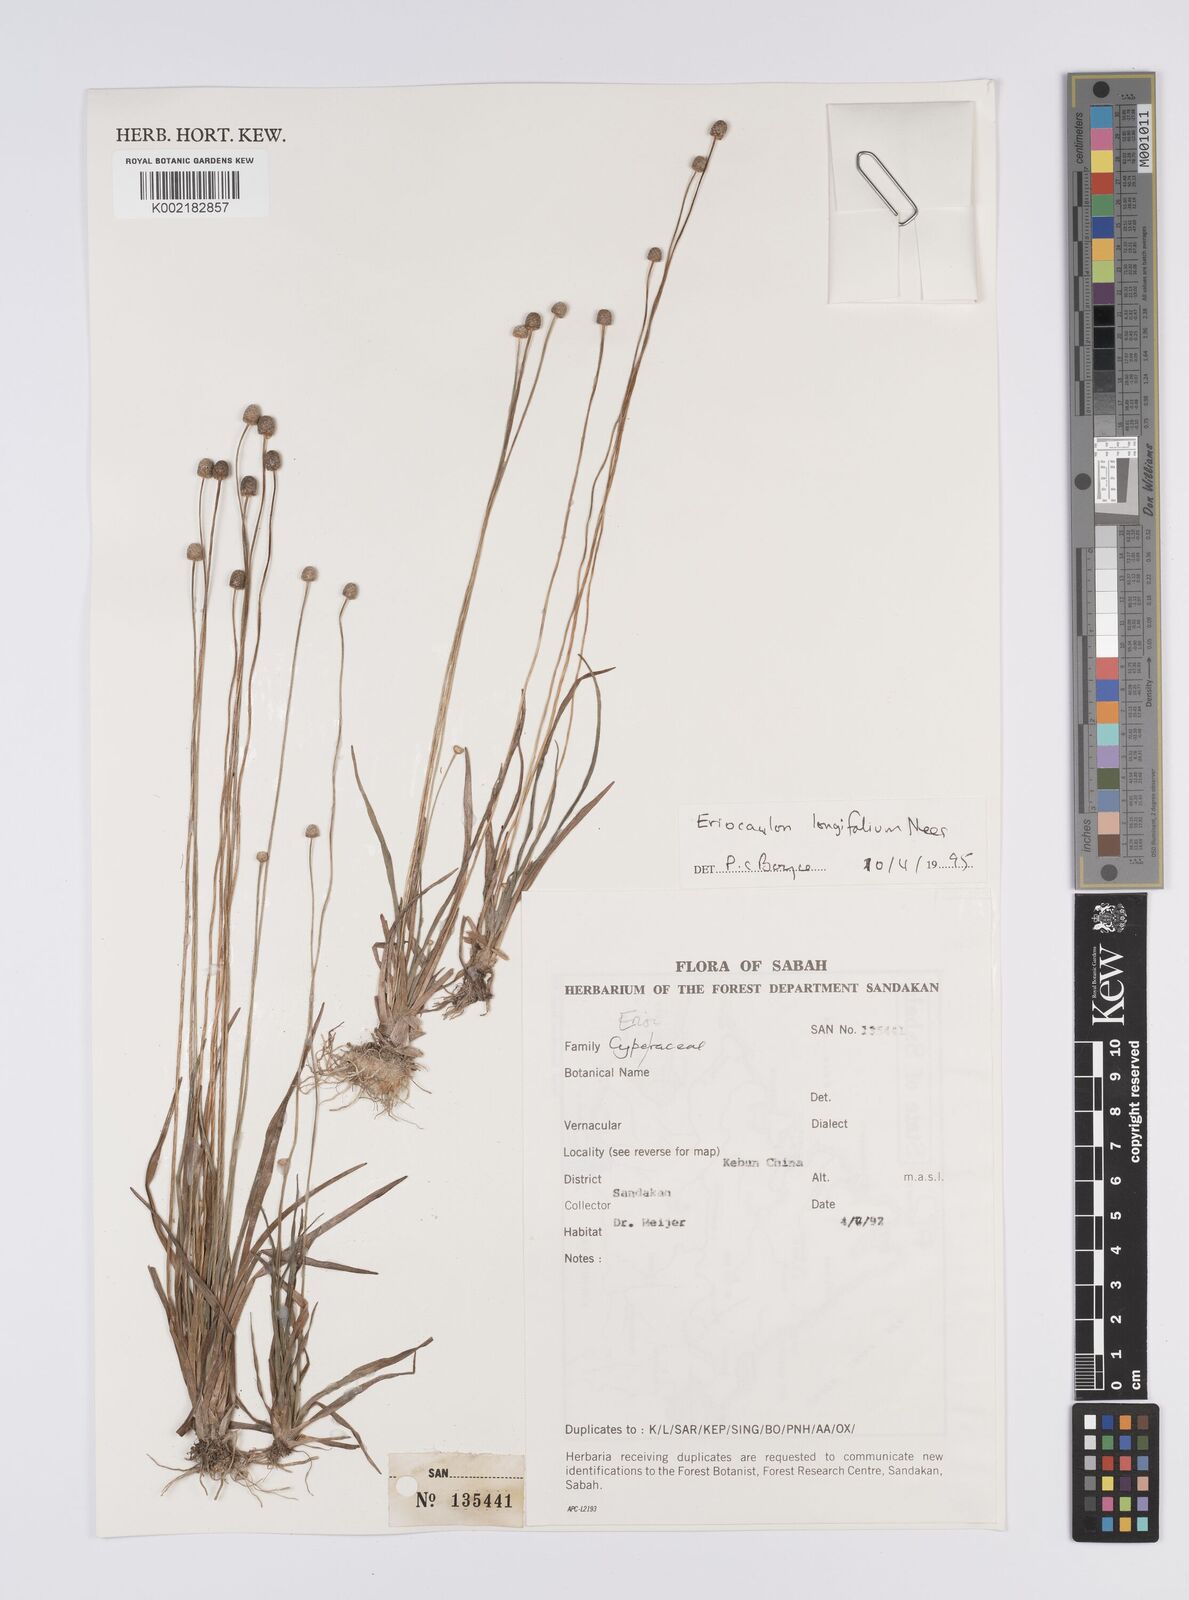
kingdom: Plantae
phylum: Tracheophyta
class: Liliopsida
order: Poales
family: Eriocaulaceae
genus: Eriocaulon
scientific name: Eriocaulon willdenovianum
